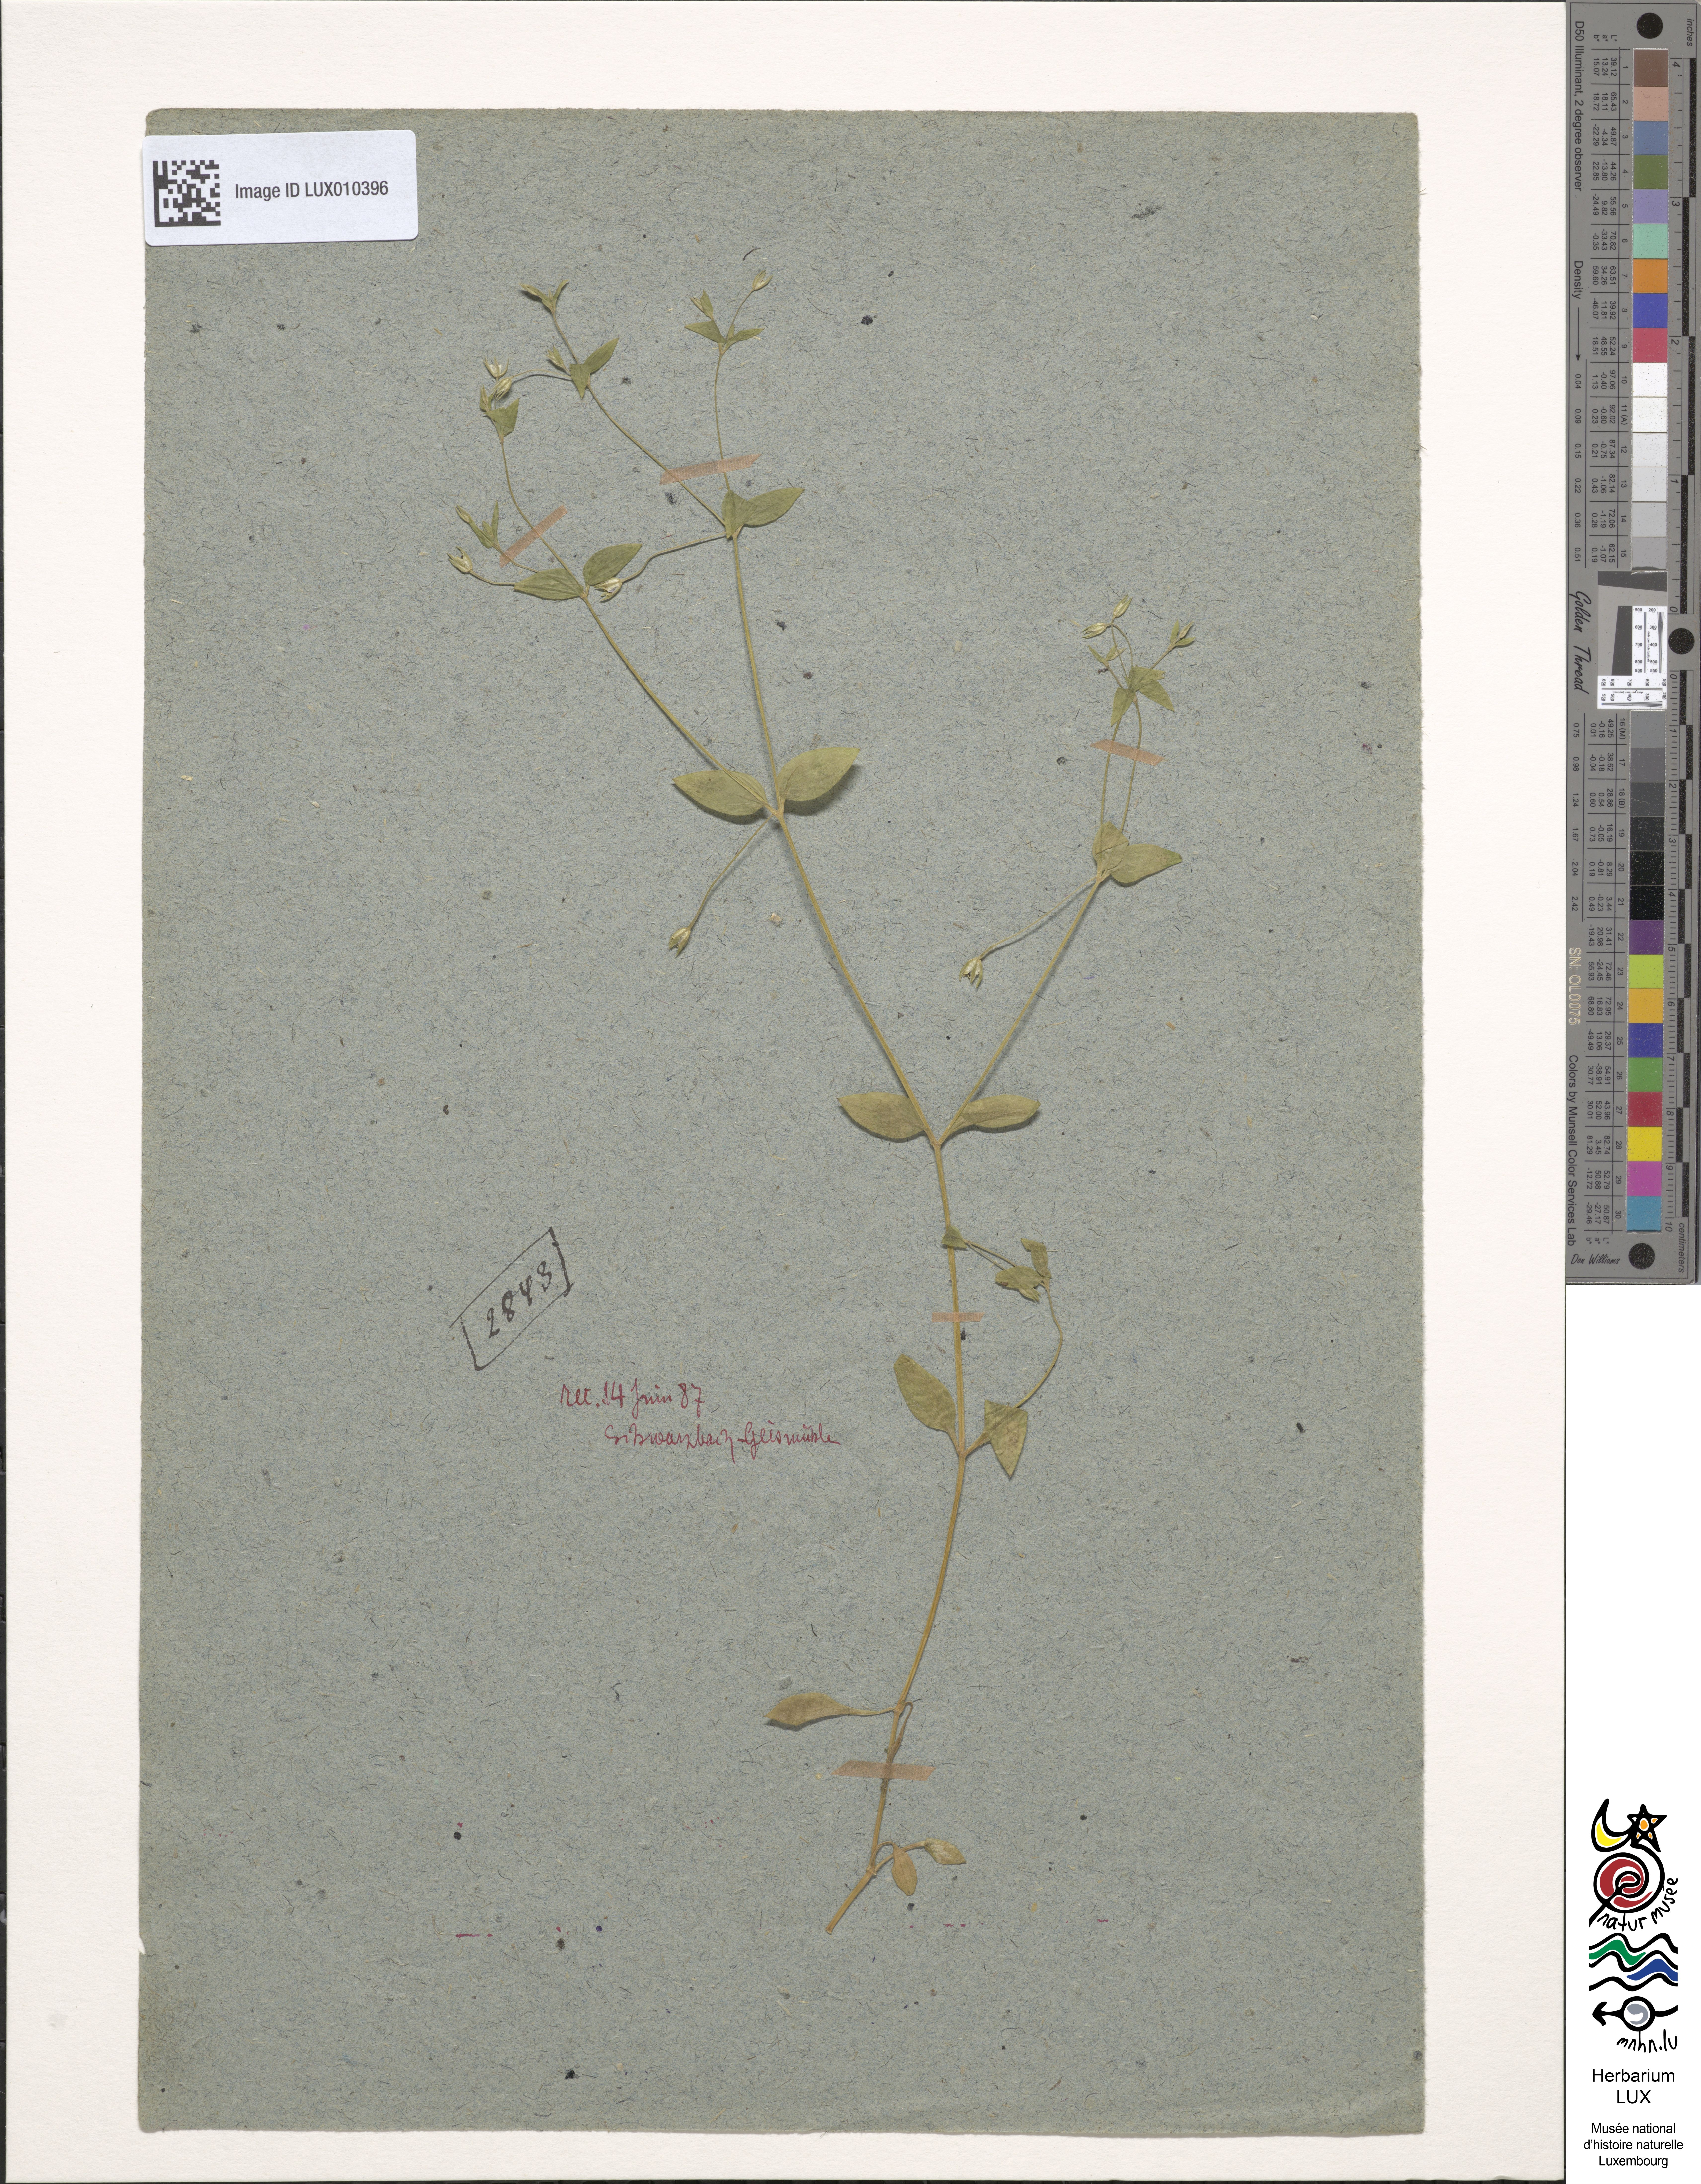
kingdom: Plantae
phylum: Tracheophyta
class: Magnoliopsida
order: Caryophyllales
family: Caryophyllaceae
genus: Moehringia
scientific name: Moehringia trinervia
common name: Three-nerved sandwort
